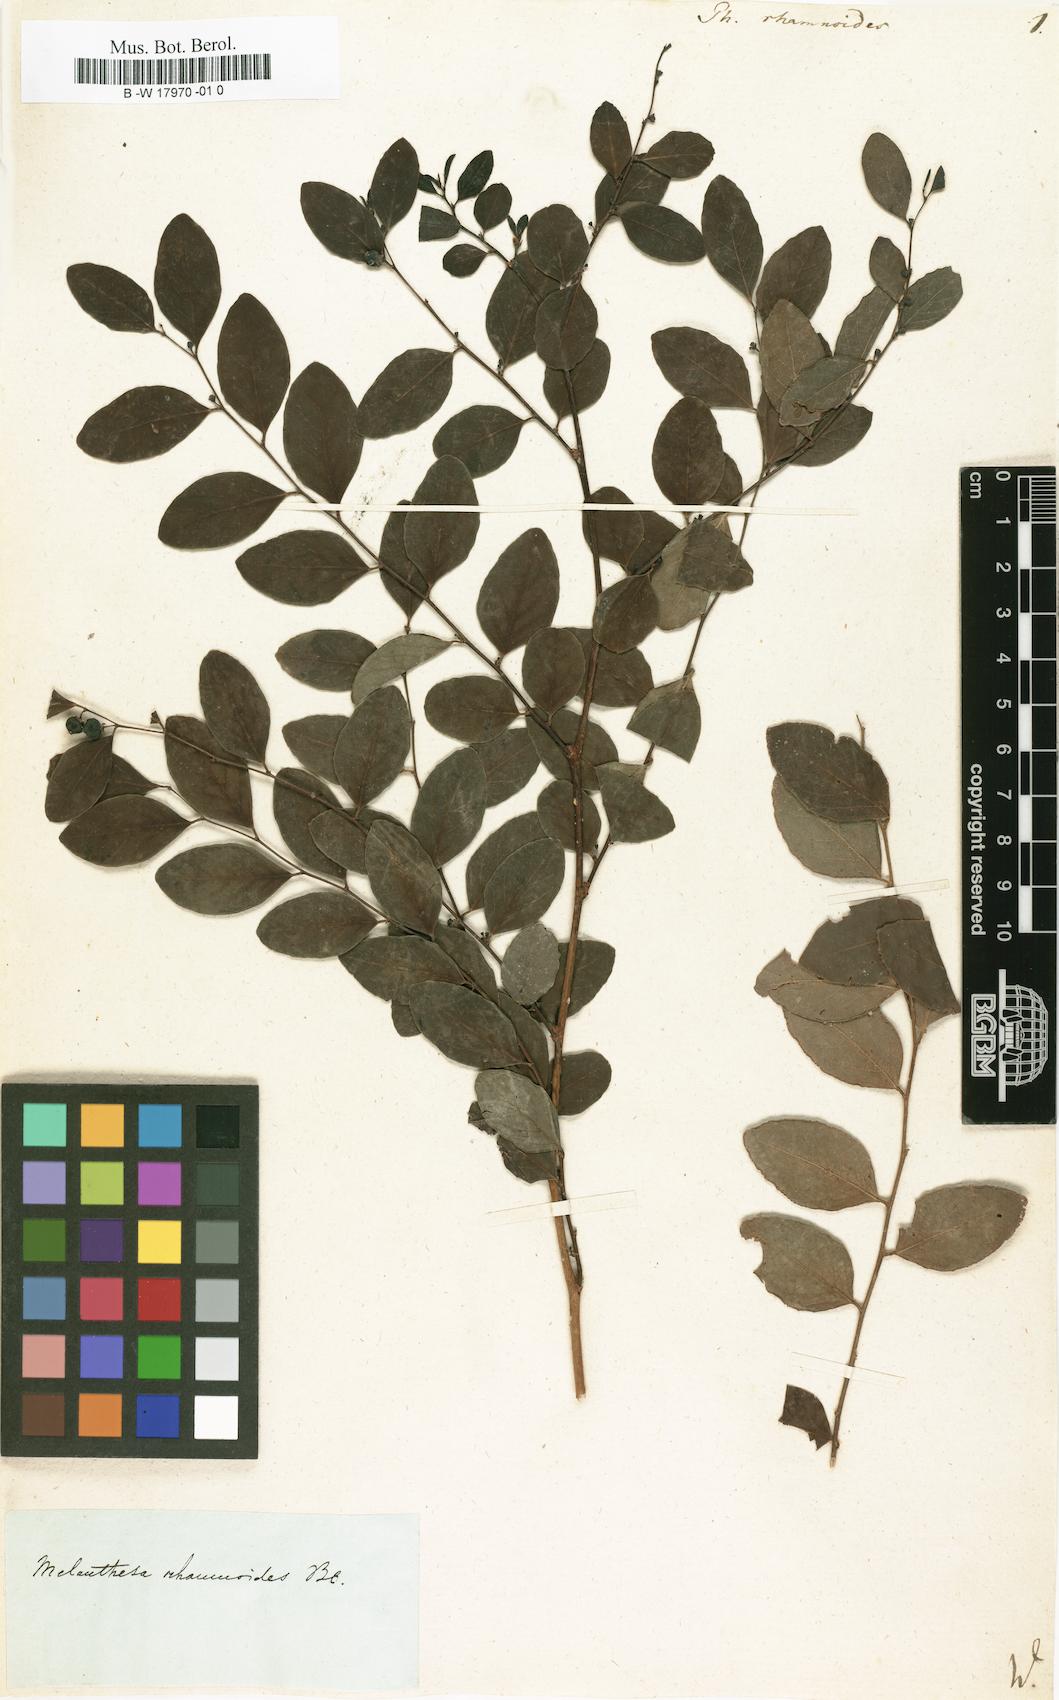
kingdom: Plantae
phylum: Tracheophyta
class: Magnoliopsida
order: Malpighiales
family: Phyllanthaceae
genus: Breynia
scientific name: Breynia vitis-idaea
